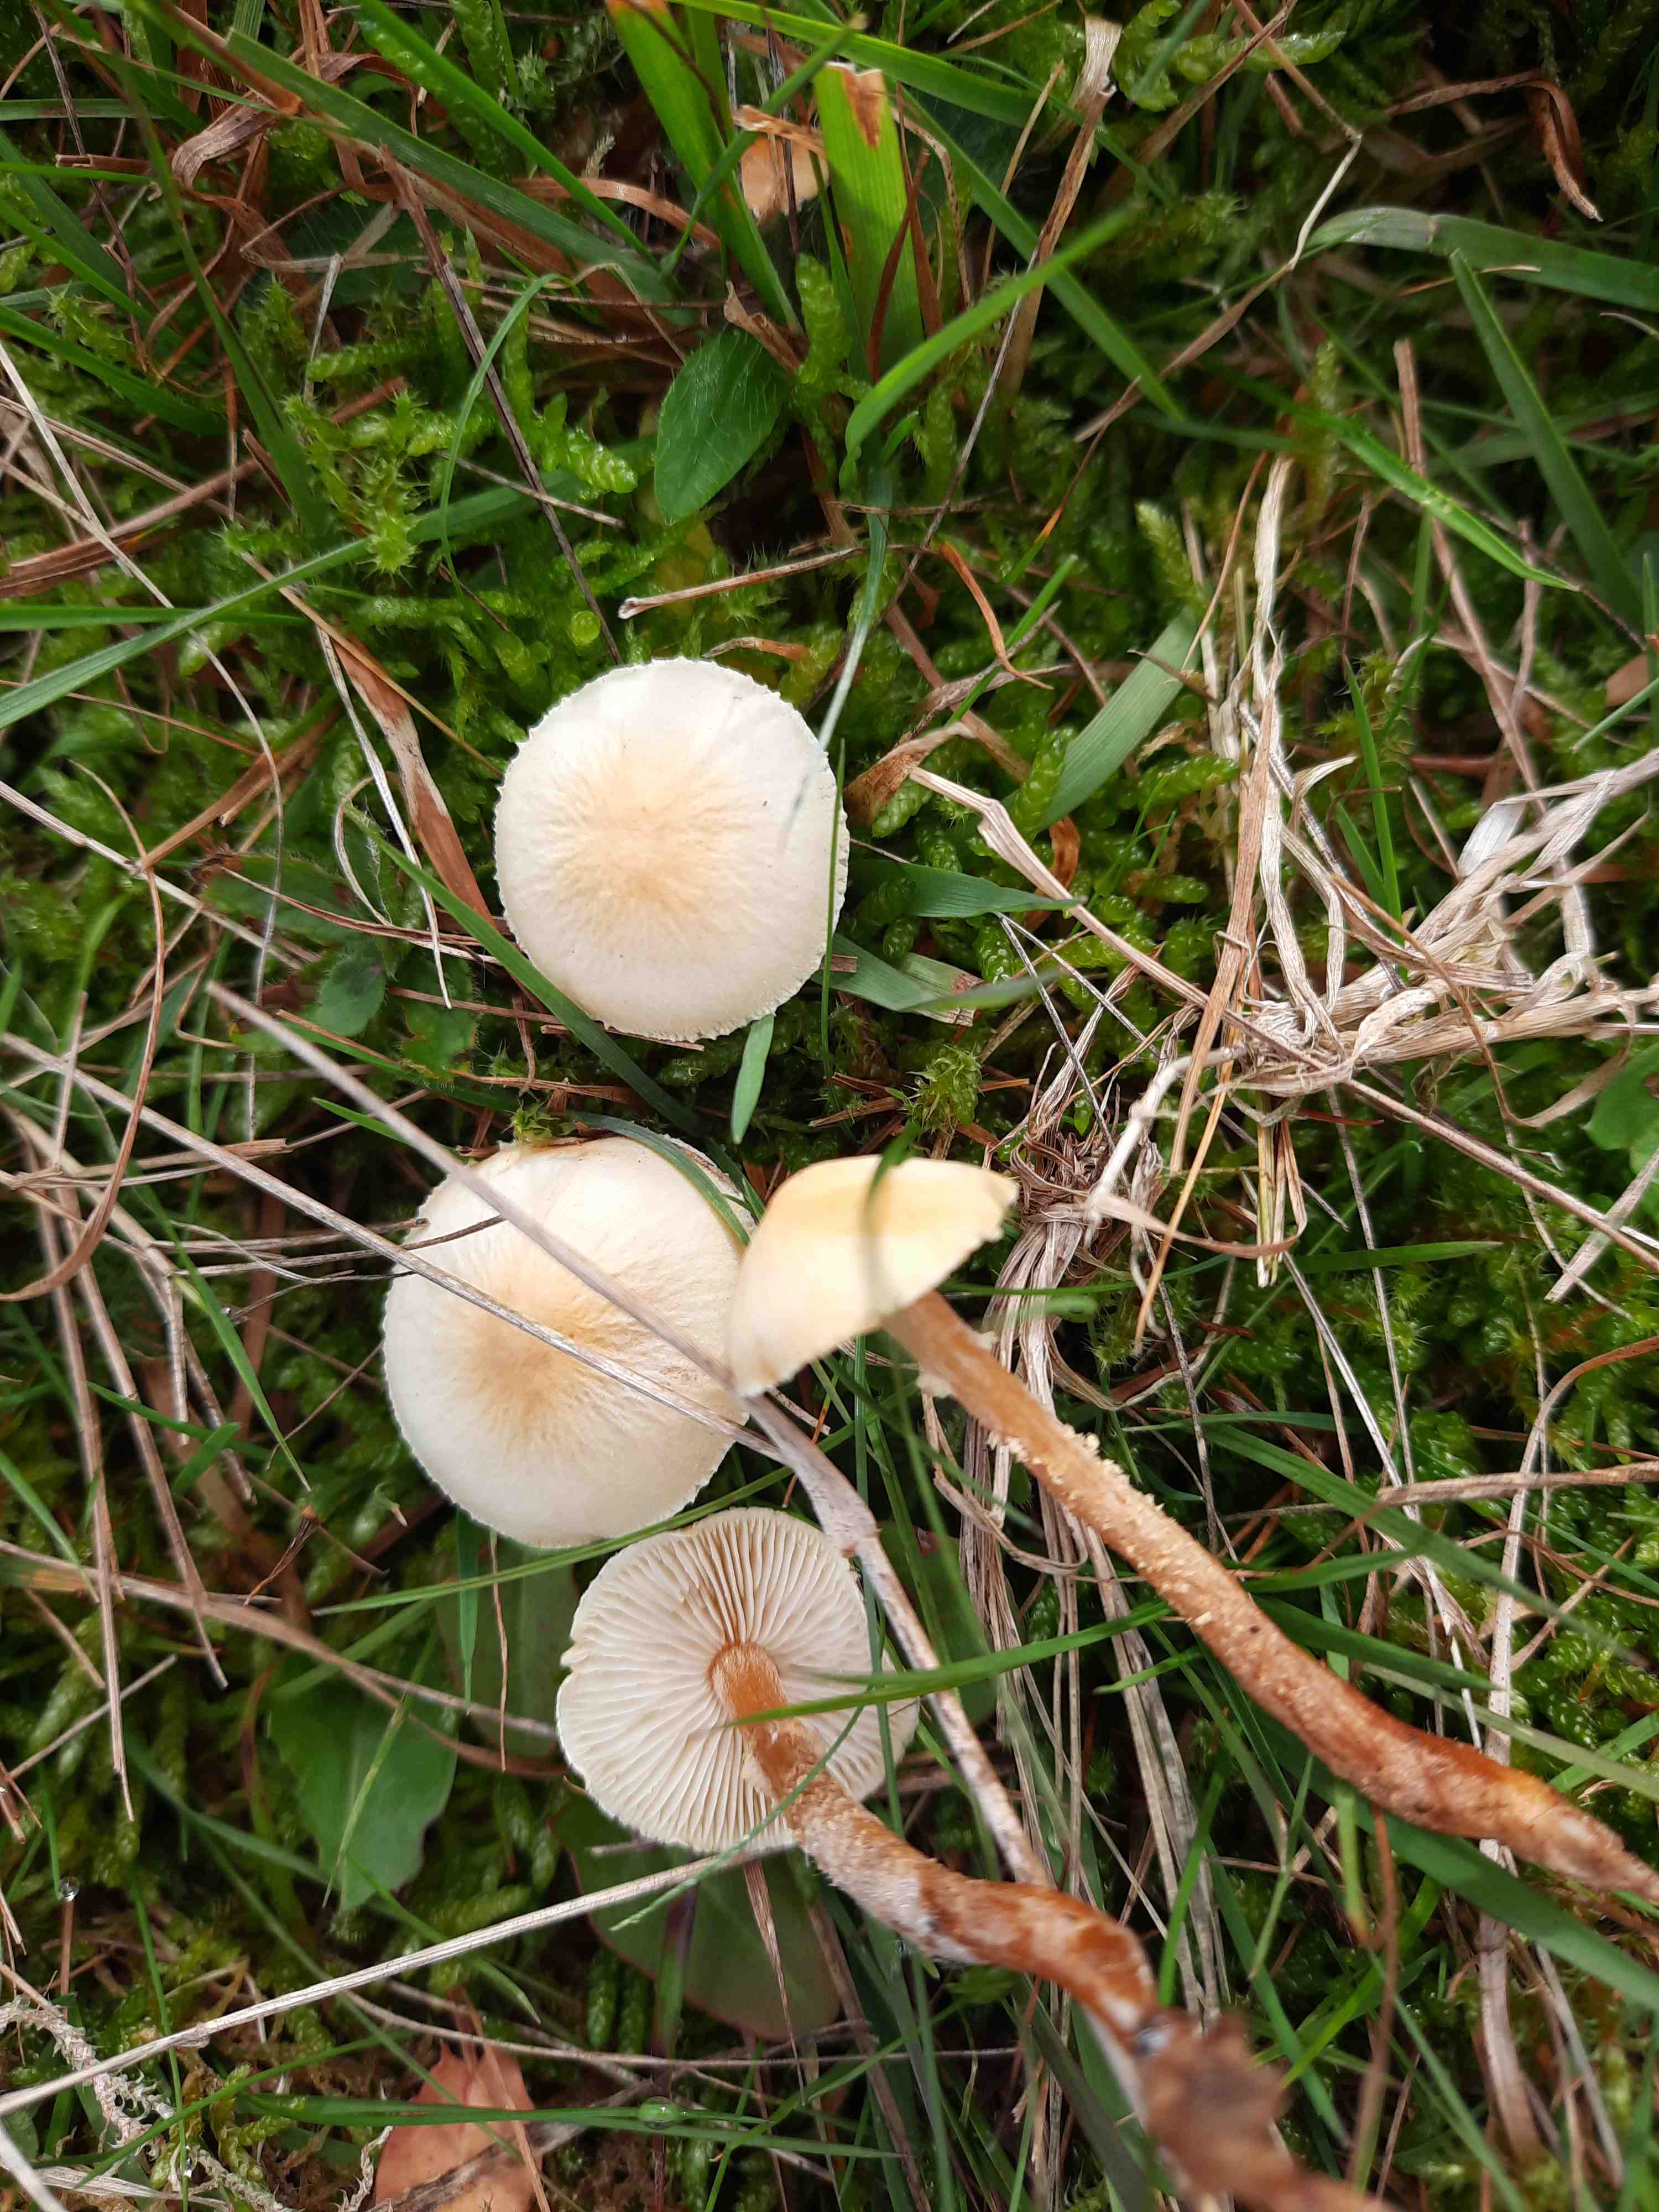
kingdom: Fungi
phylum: Basidiomycota
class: Agaricomycetes
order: Agaricales
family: Tricholomataceae
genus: Cystoderma
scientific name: Cystoderma amianthinum
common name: okkergul grynhat
